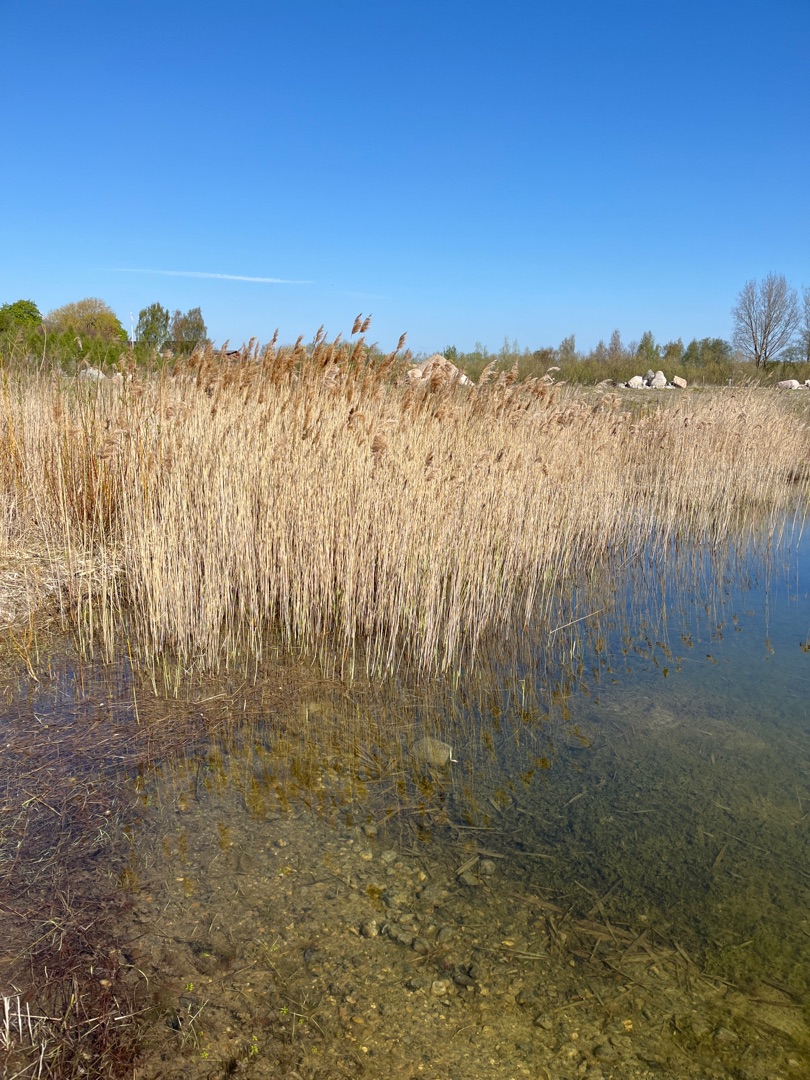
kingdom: Plantae
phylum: Tracheophyta
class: Liliopsida
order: Poales
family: Poaceae
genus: Phragmites
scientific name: Phragmites australis
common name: Tagrør
